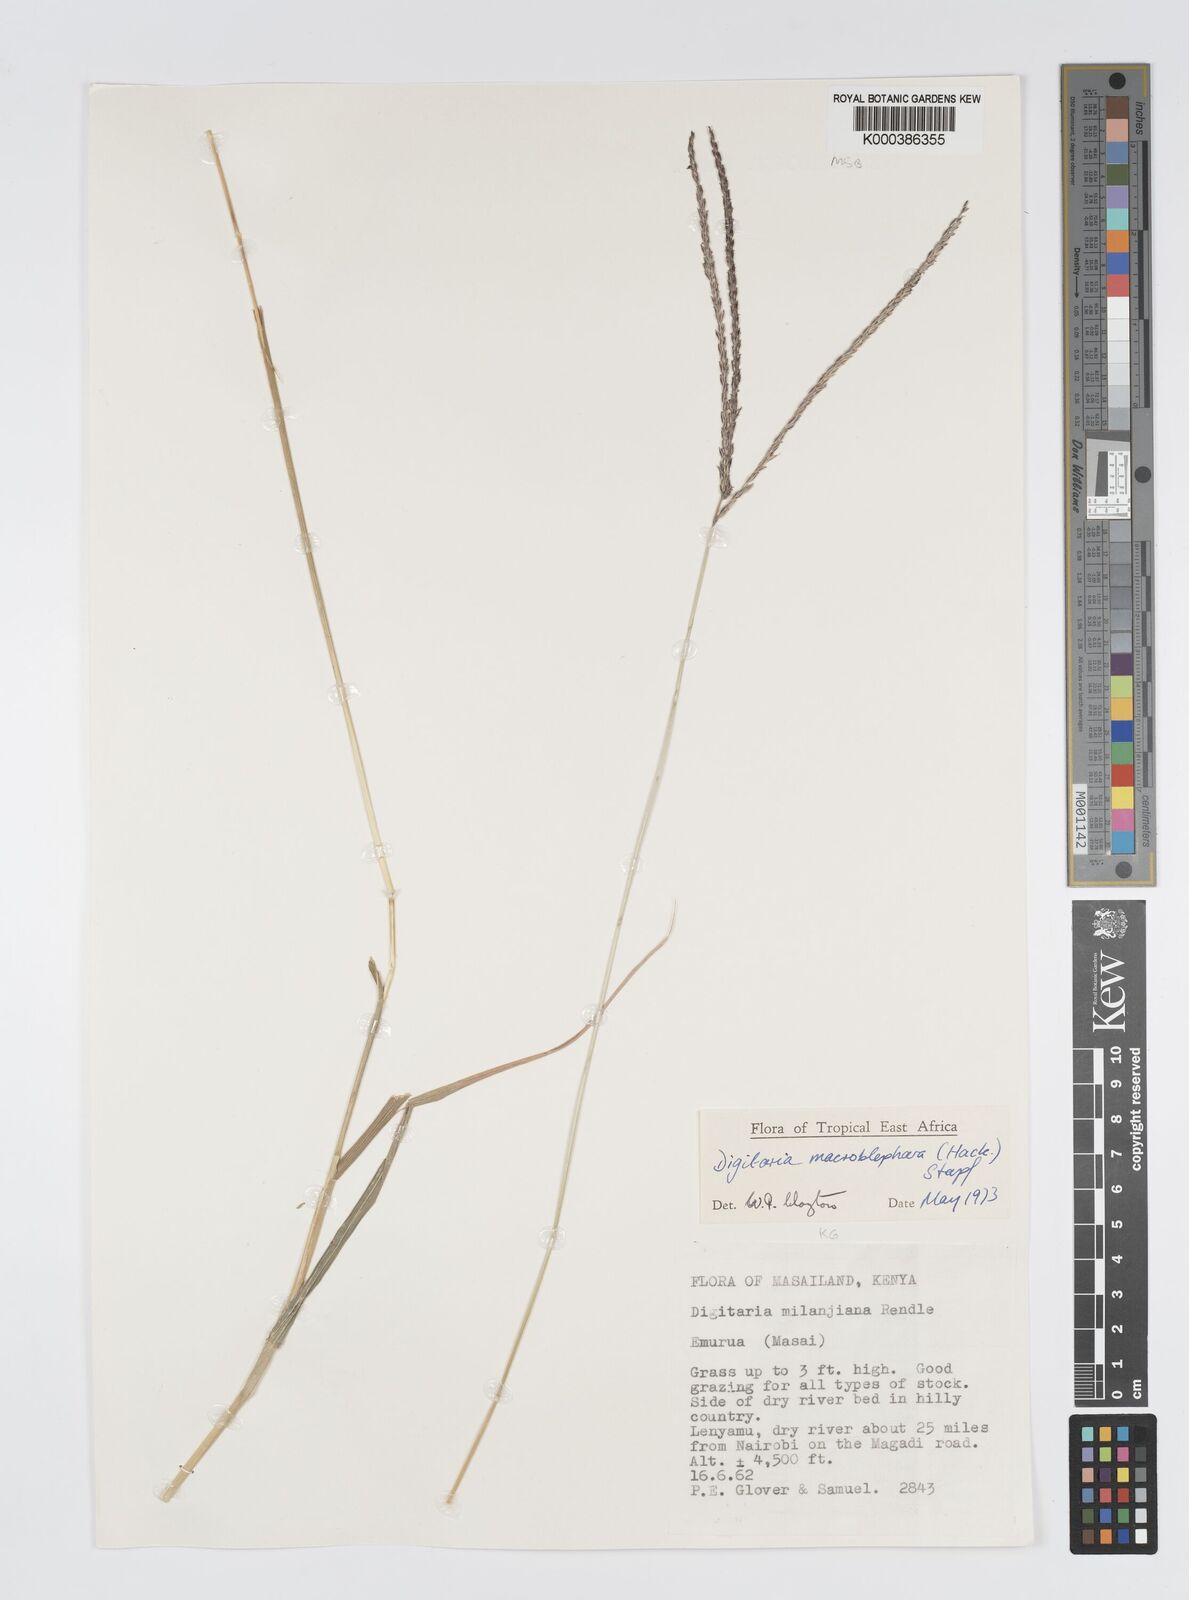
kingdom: Plantae
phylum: Tracheophyta
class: Liliopsida
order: Poales
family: Poaceae
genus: Digitaria
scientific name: Digitaria macroblephara
